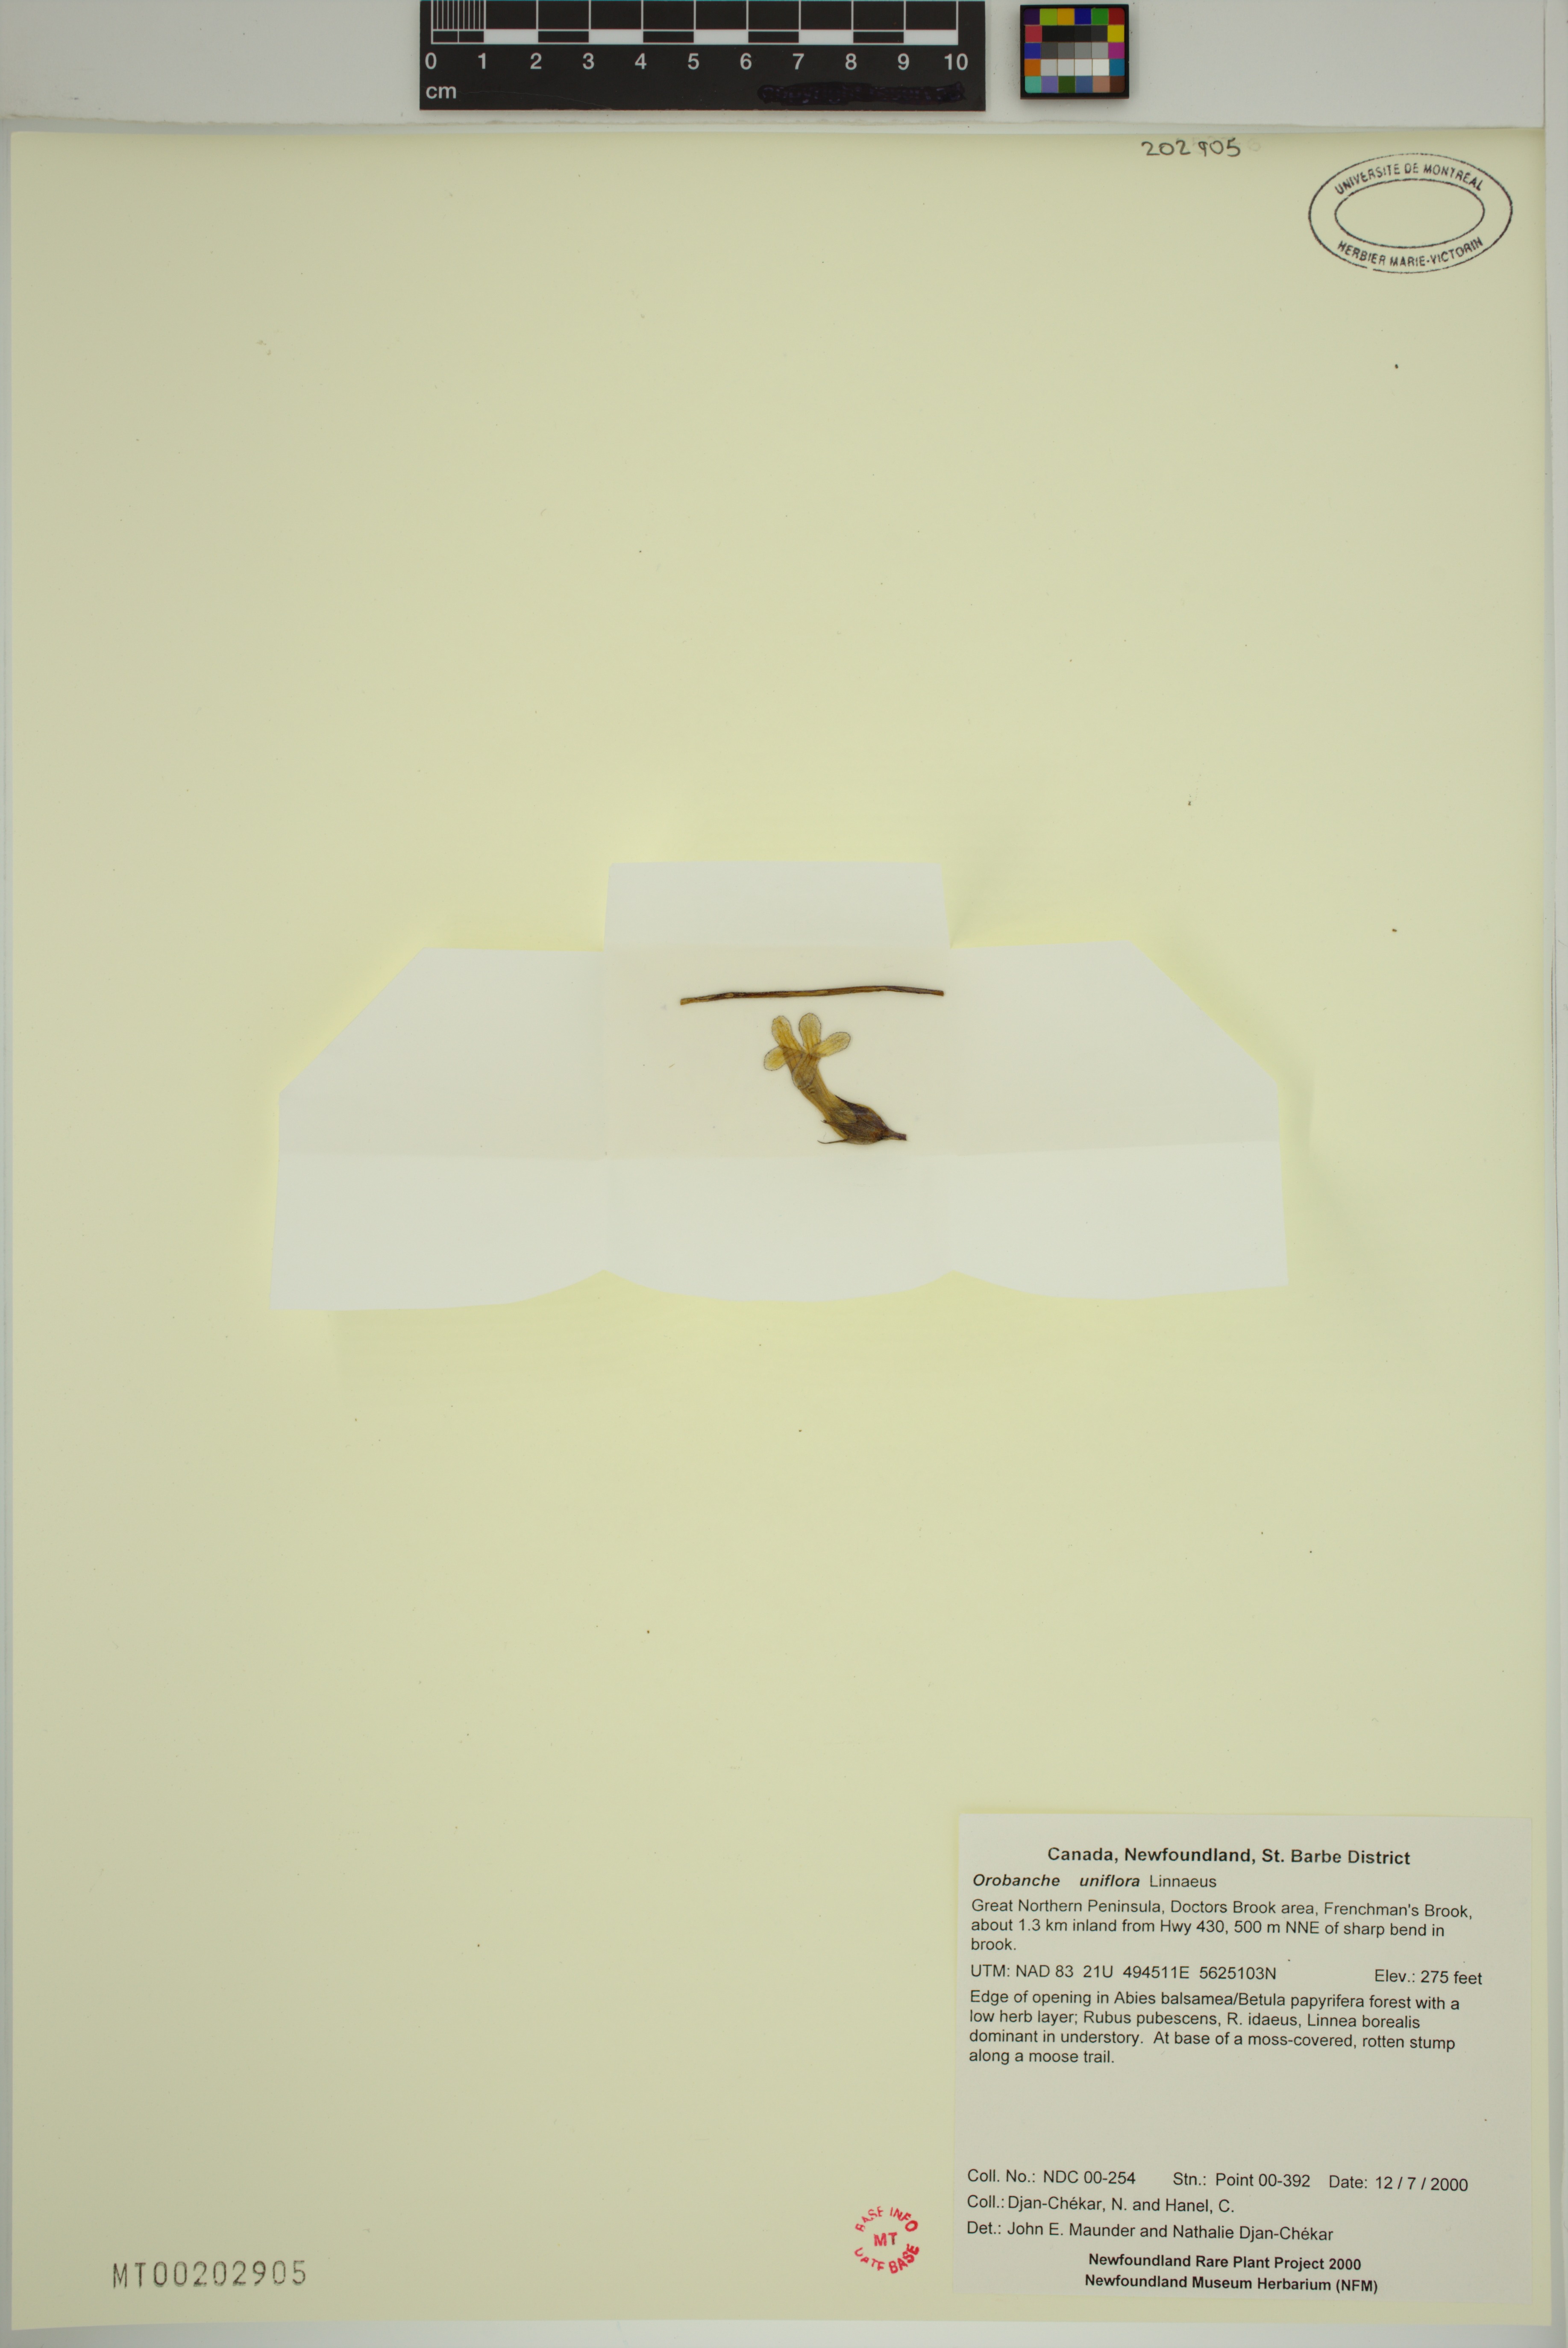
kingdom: Plantae
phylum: Tracheophyta
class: Magnoliopsida
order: Lamiales
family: Orobanchaceae
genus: Aphyllon
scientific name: Aphyllon uniflorum
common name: One-flowered broomrape
